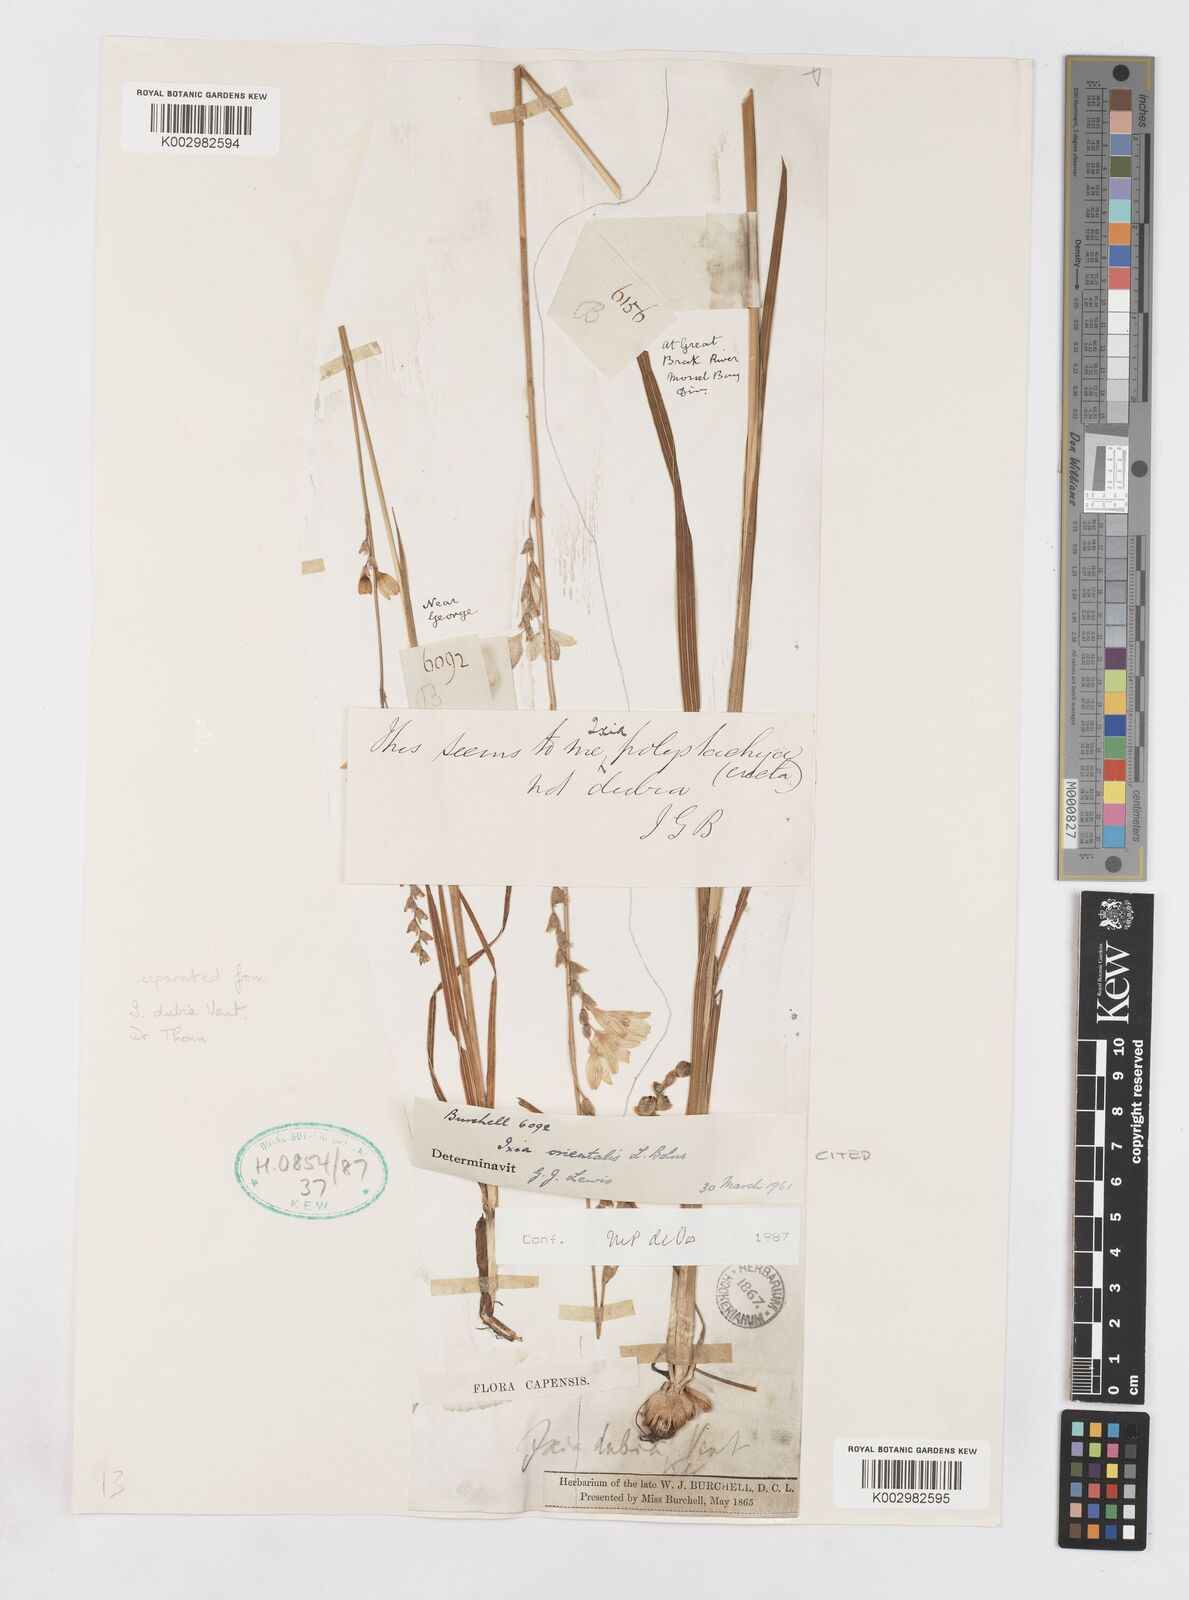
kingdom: Plantae
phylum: Tracheophyta
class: Liliopsida
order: Asparagales
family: Iridaceae
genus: Ixia
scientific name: Ixia orientalis
